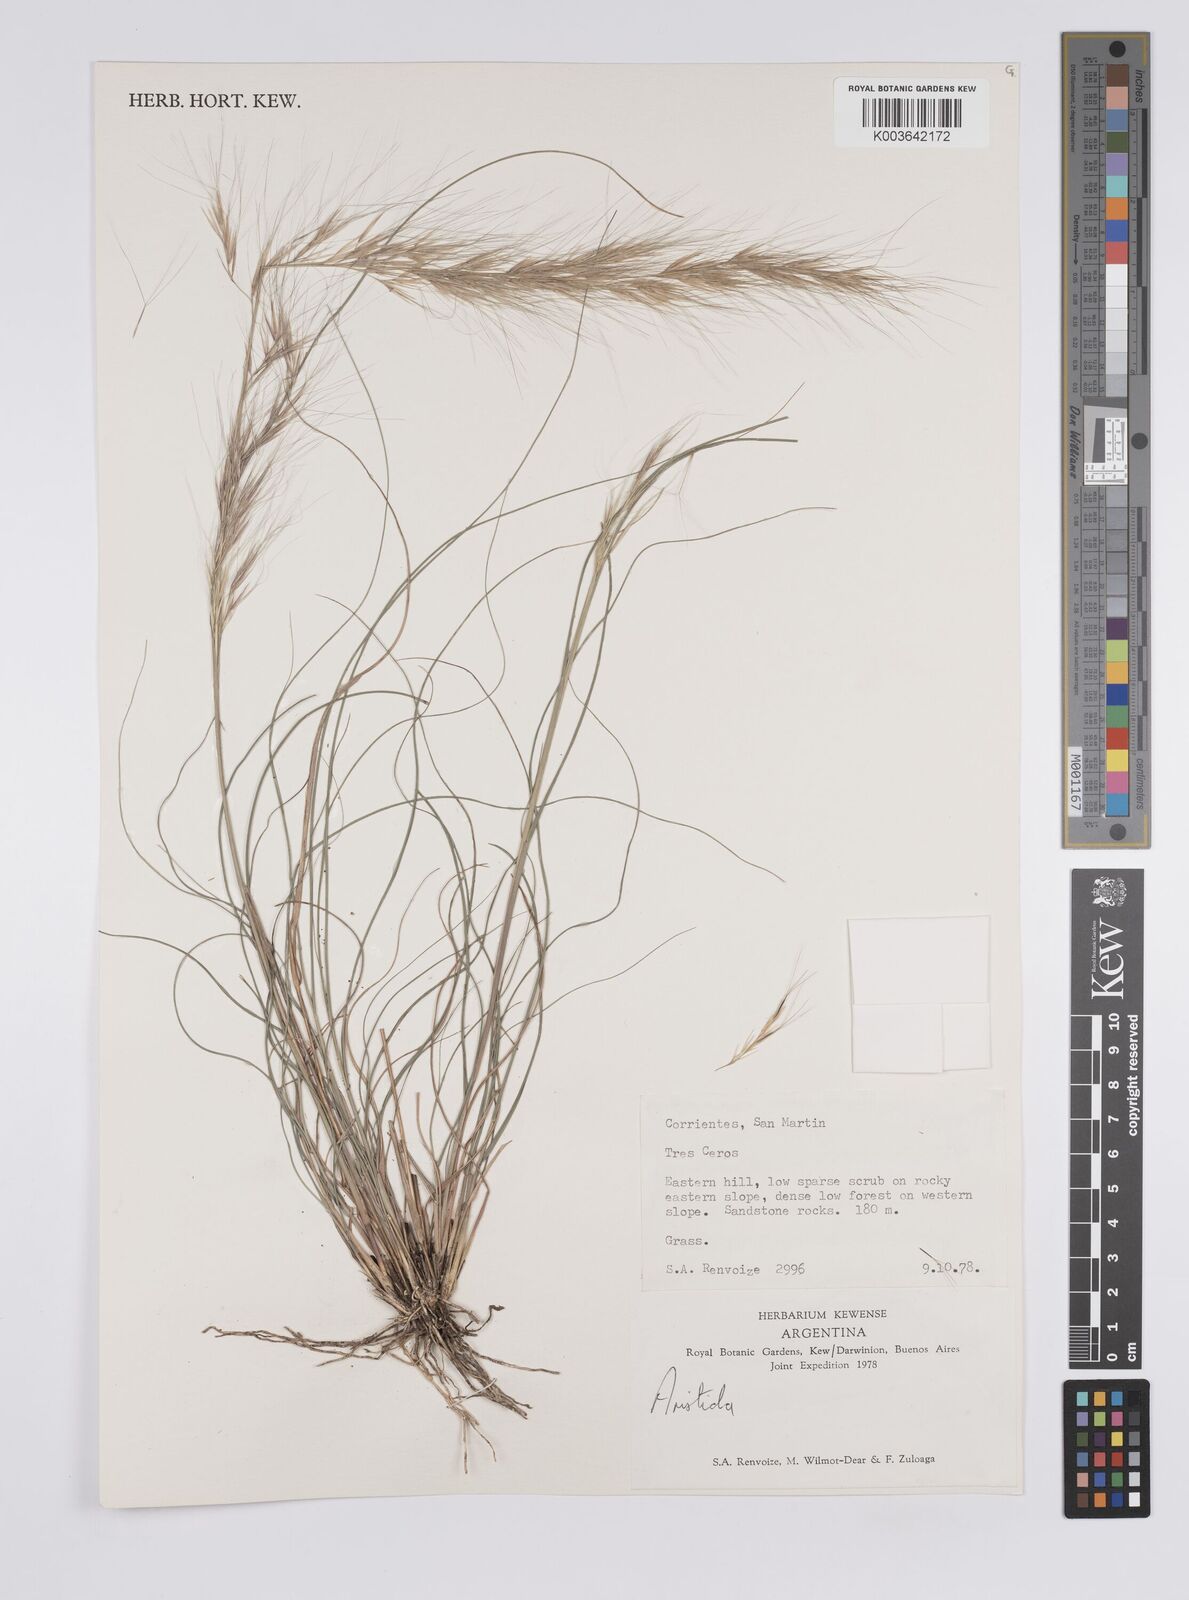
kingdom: Plantae
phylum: Tracheophyta
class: Liliopsida
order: Poales
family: Poaceae
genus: Aristida
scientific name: Aristida
